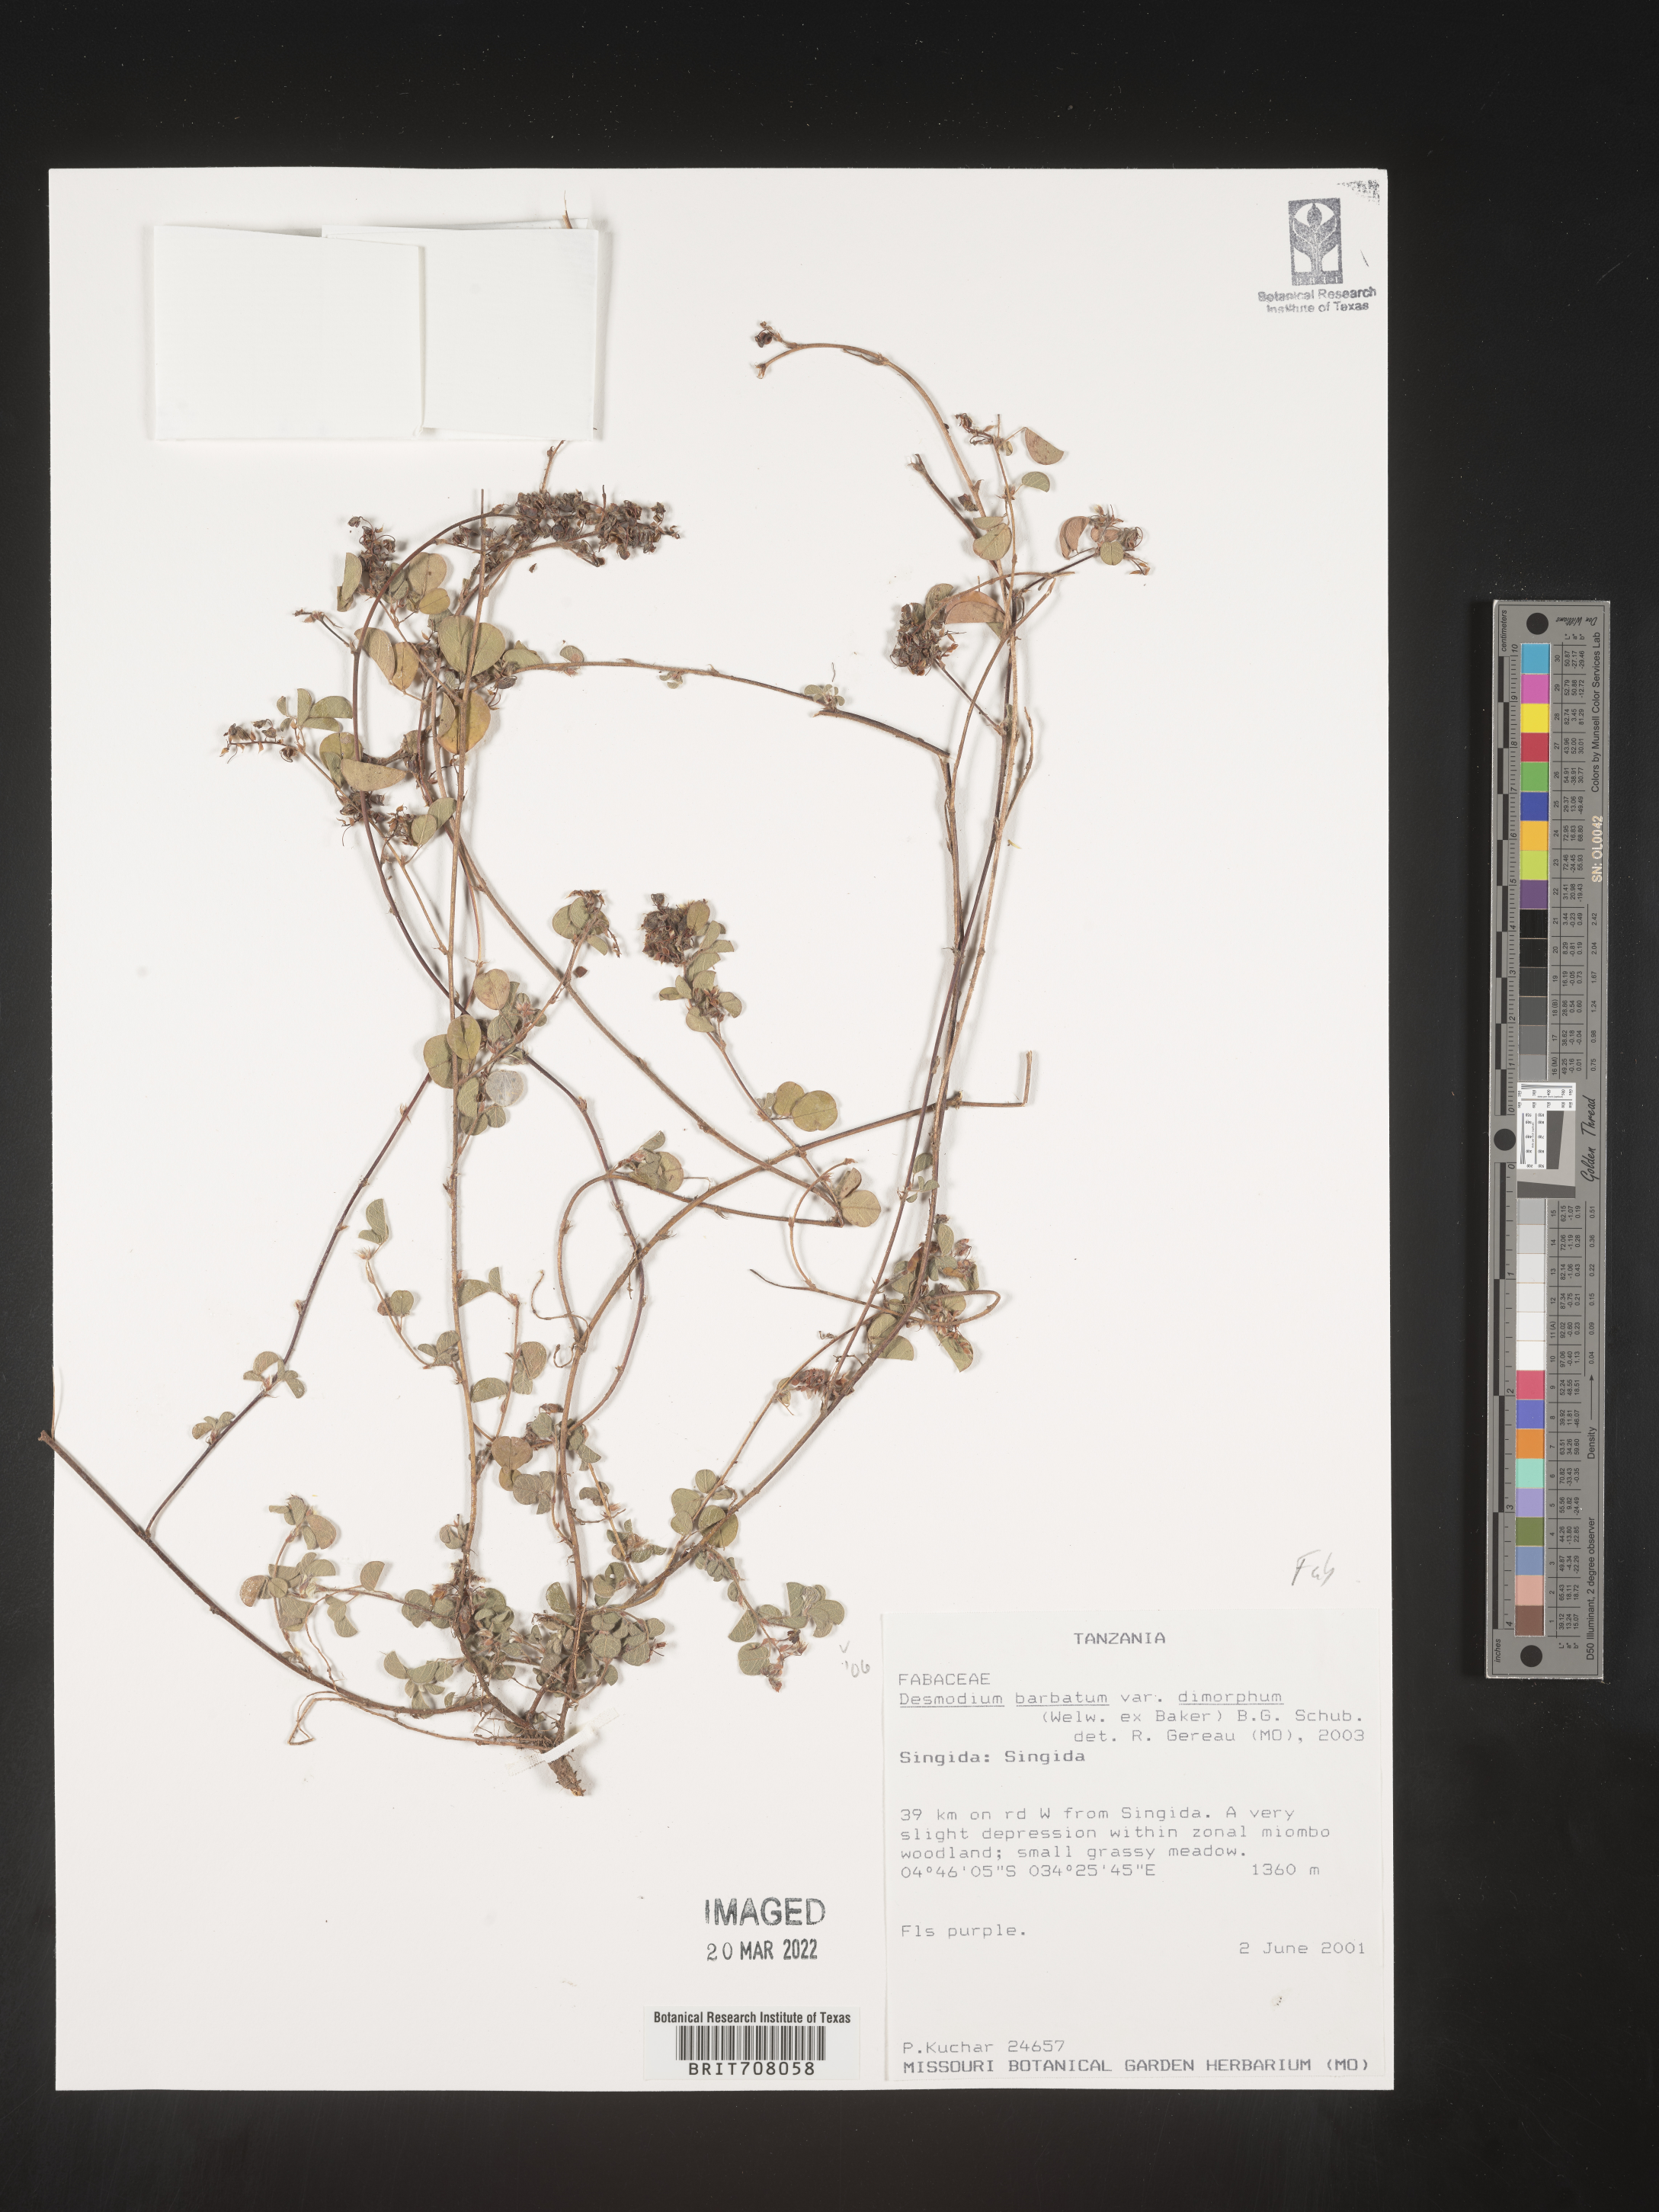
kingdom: Plantae
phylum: Tracheophyta
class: Magnoliopsida
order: Fabales
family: Fabaceae
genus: Desmodium
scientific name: Desmodium
